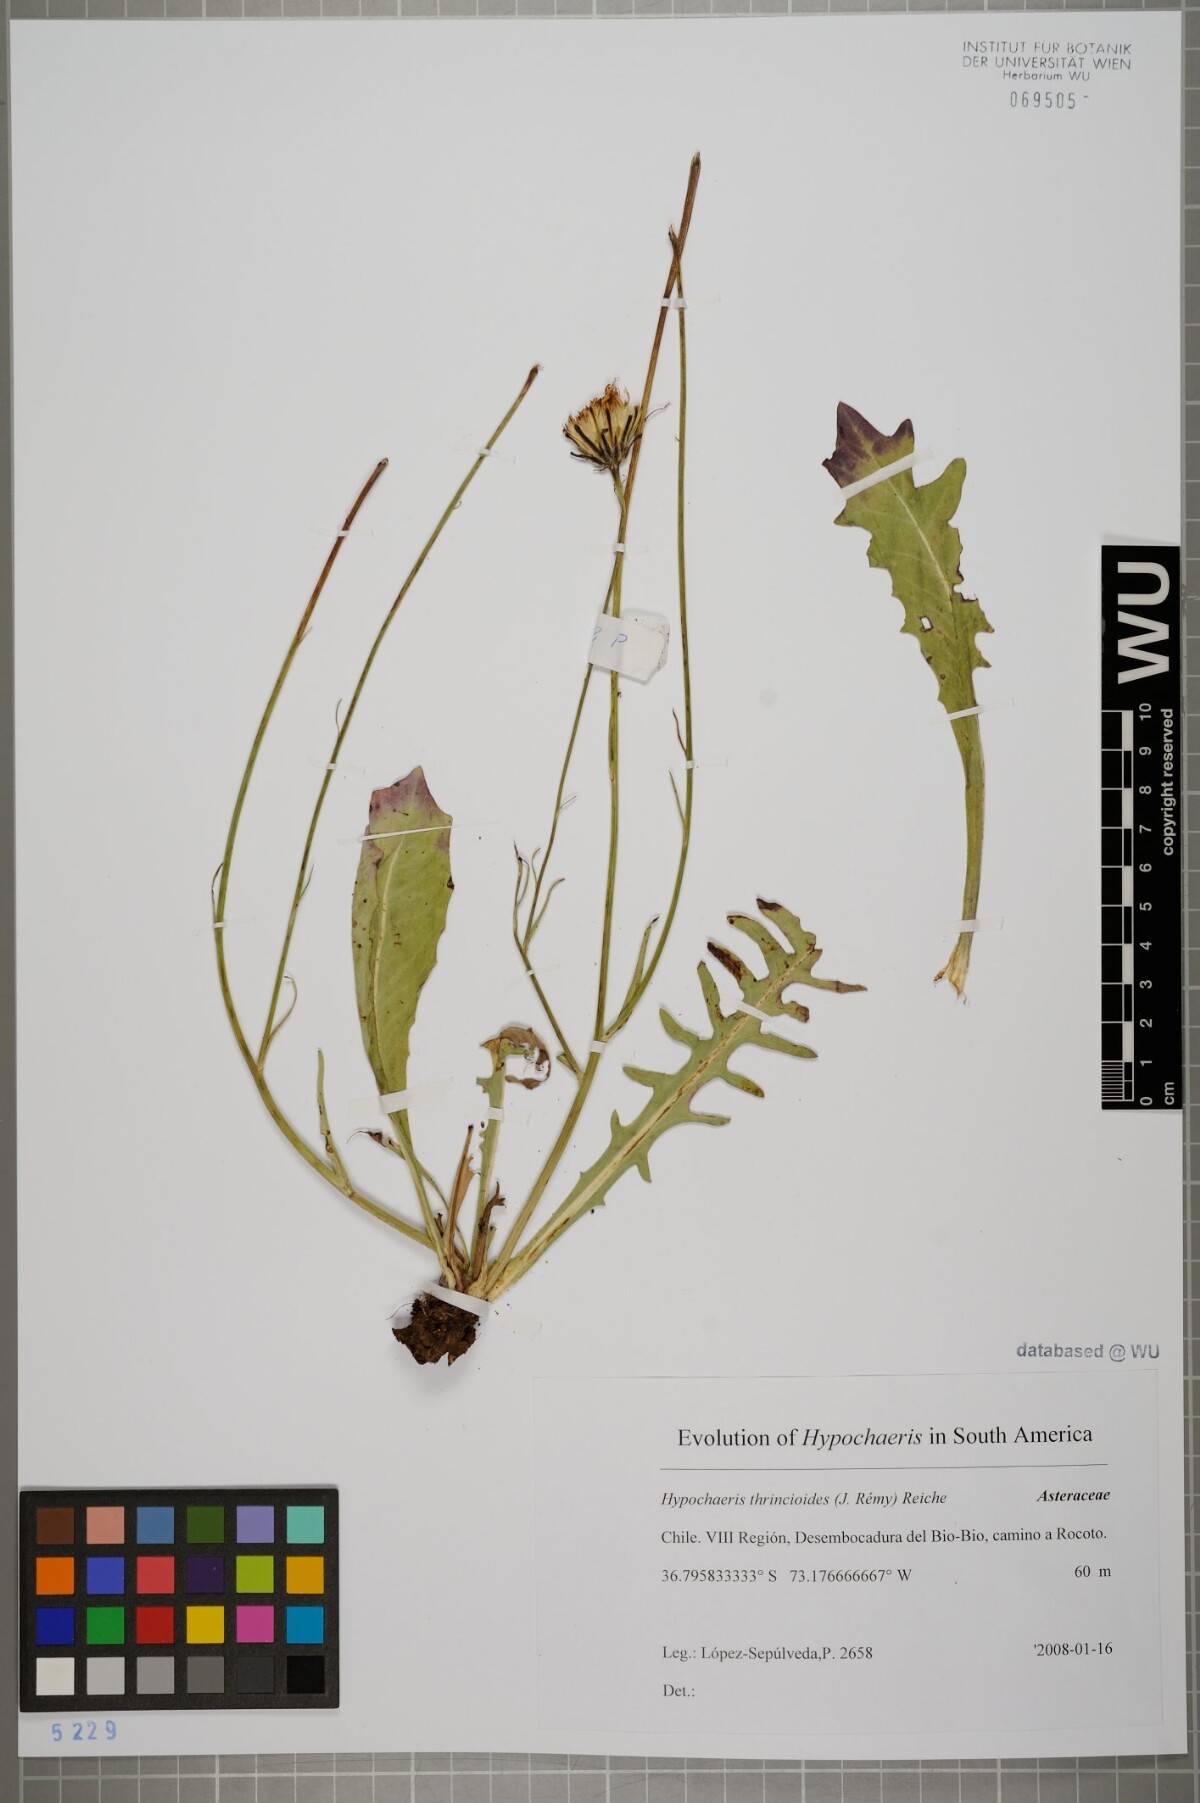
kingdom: Plantae
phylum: Tracheophyta
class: Magnoliopsida
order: Asterales
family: Asteraceae
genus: Hypochaeris
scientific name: Hypochaeris apargioides
